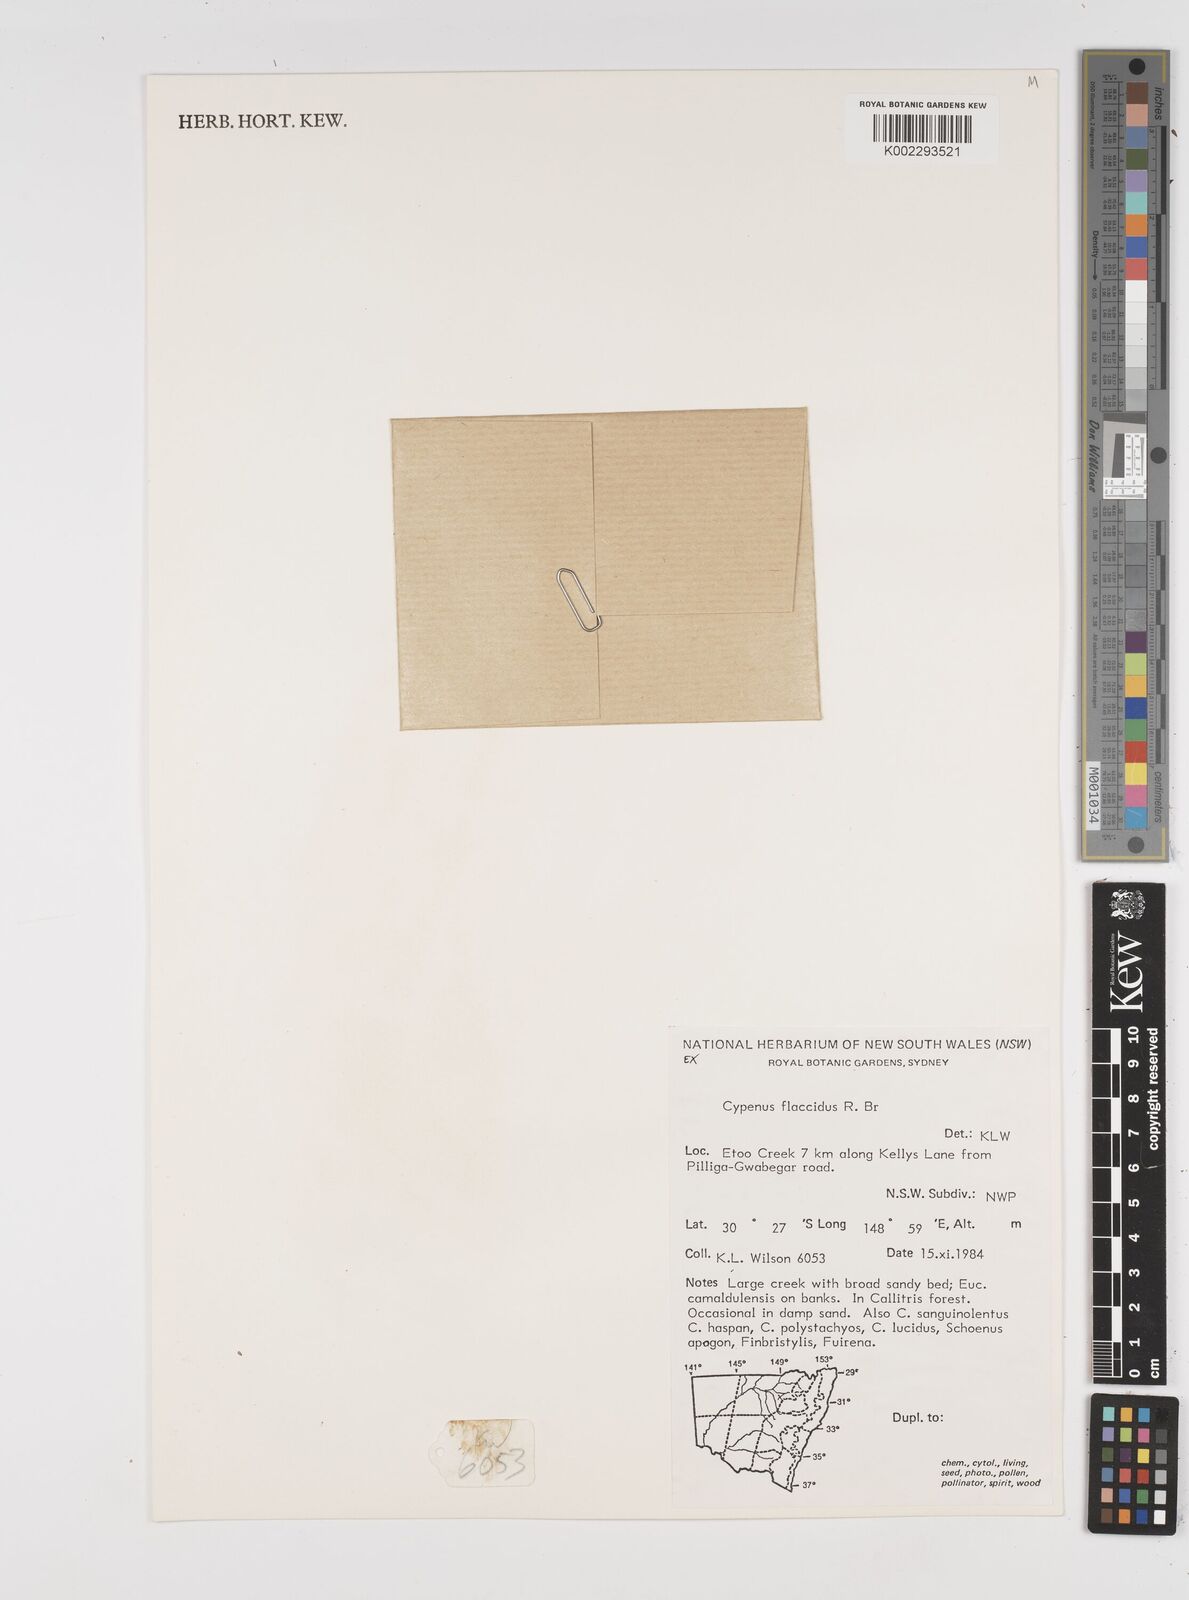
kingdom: Plantae
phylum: Tracheophyta
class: Liliopsida
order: Poales
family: Cyperaceae
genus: Cyperus
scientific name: Cyperus flaccidus
